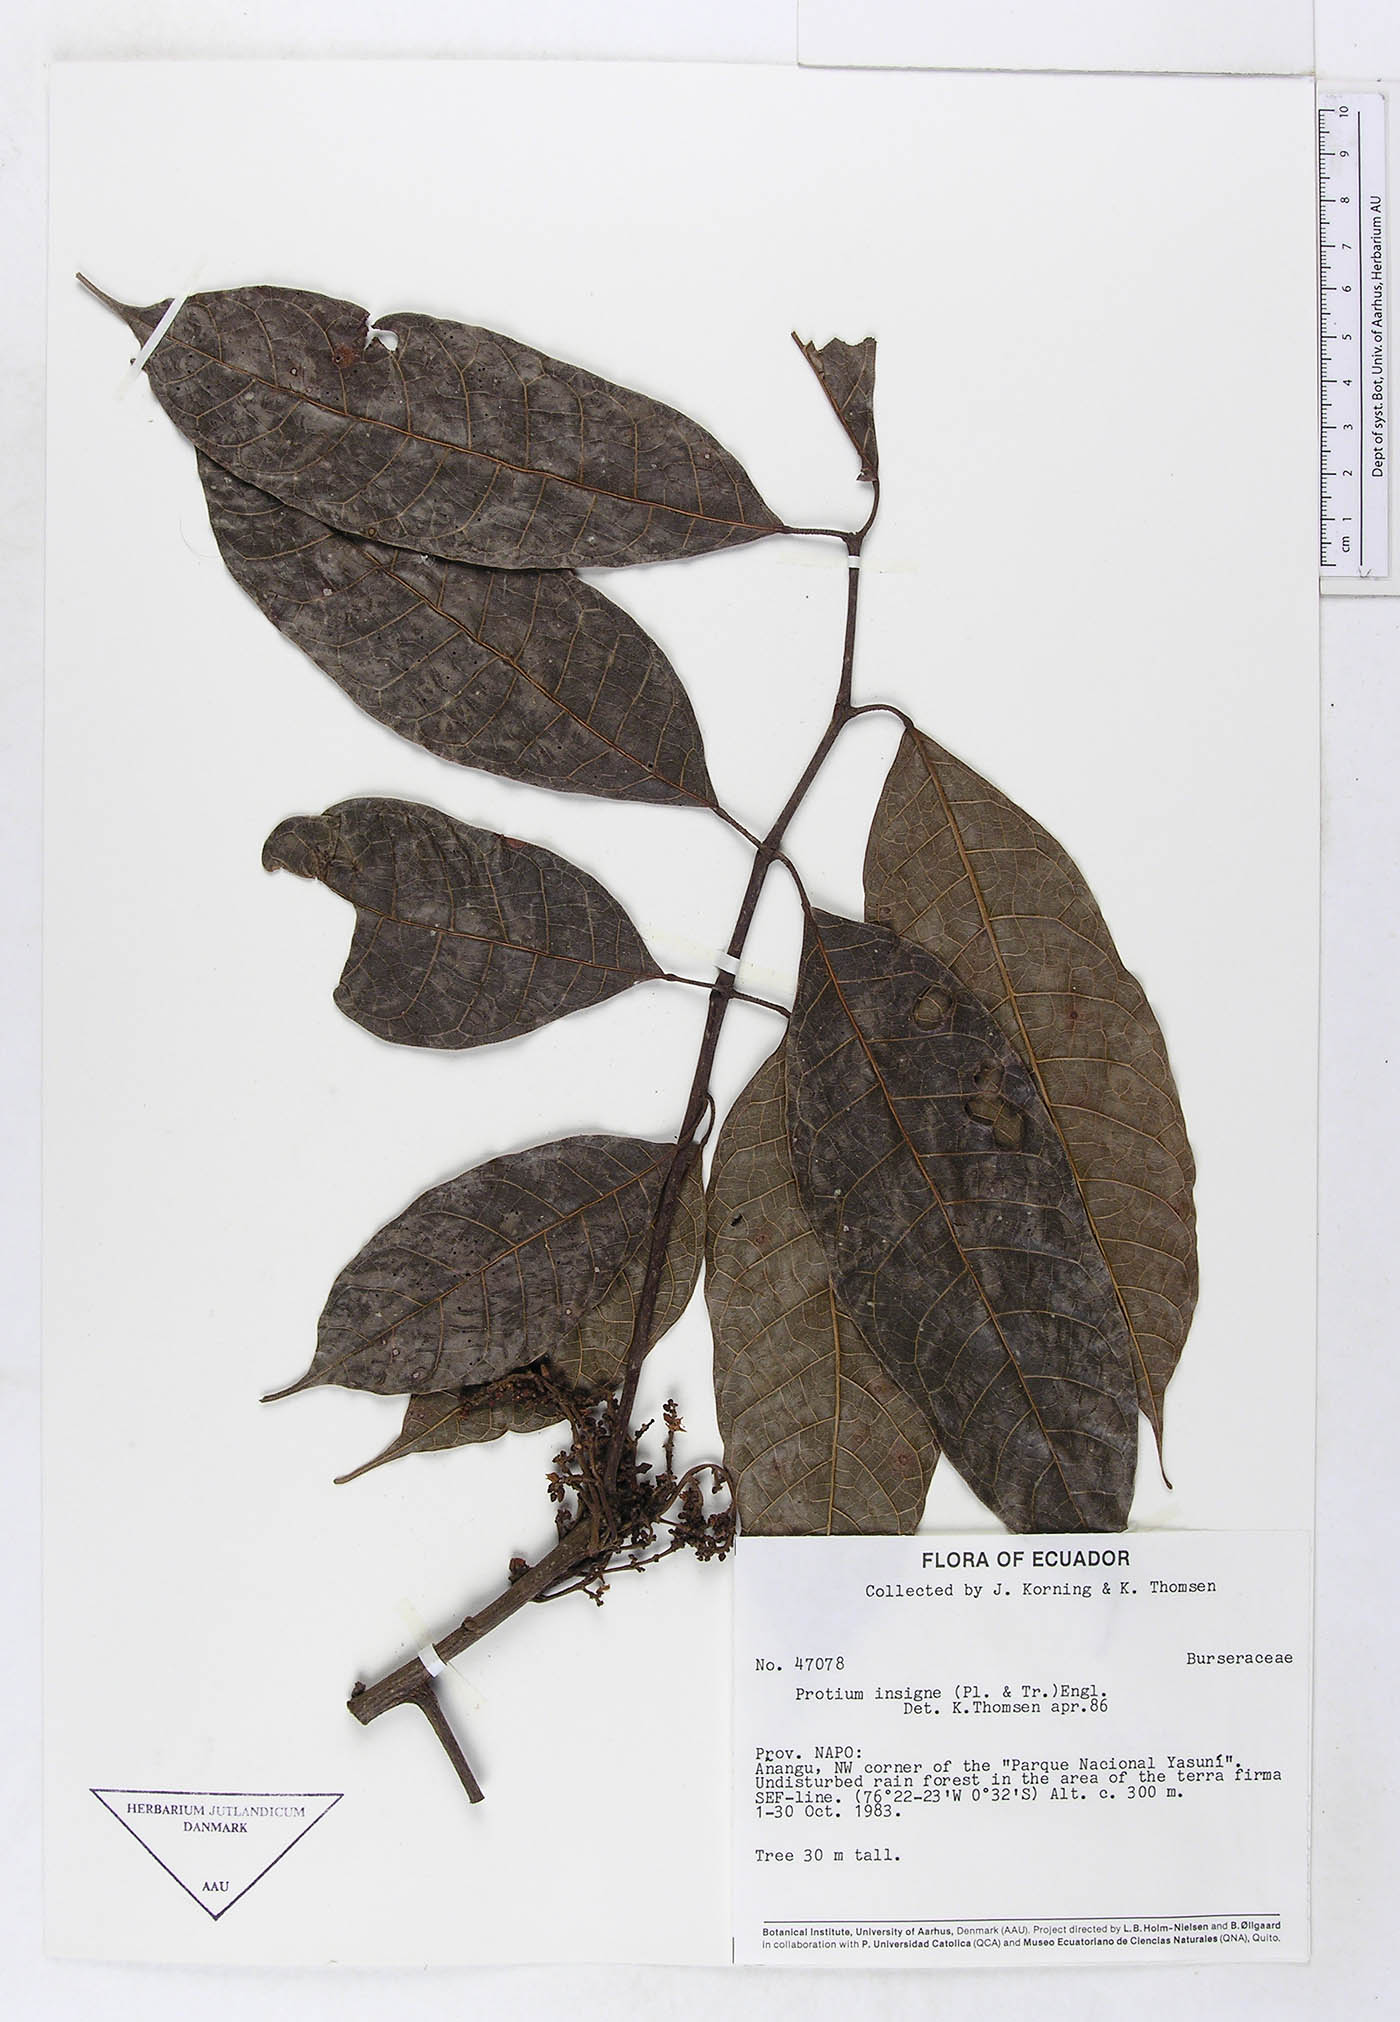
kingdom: Plantae
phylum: Tracheophyta
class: Magnoliopsida
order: Sapindales
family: Burseraceae
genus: Protium
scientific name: Protium sagotianum
